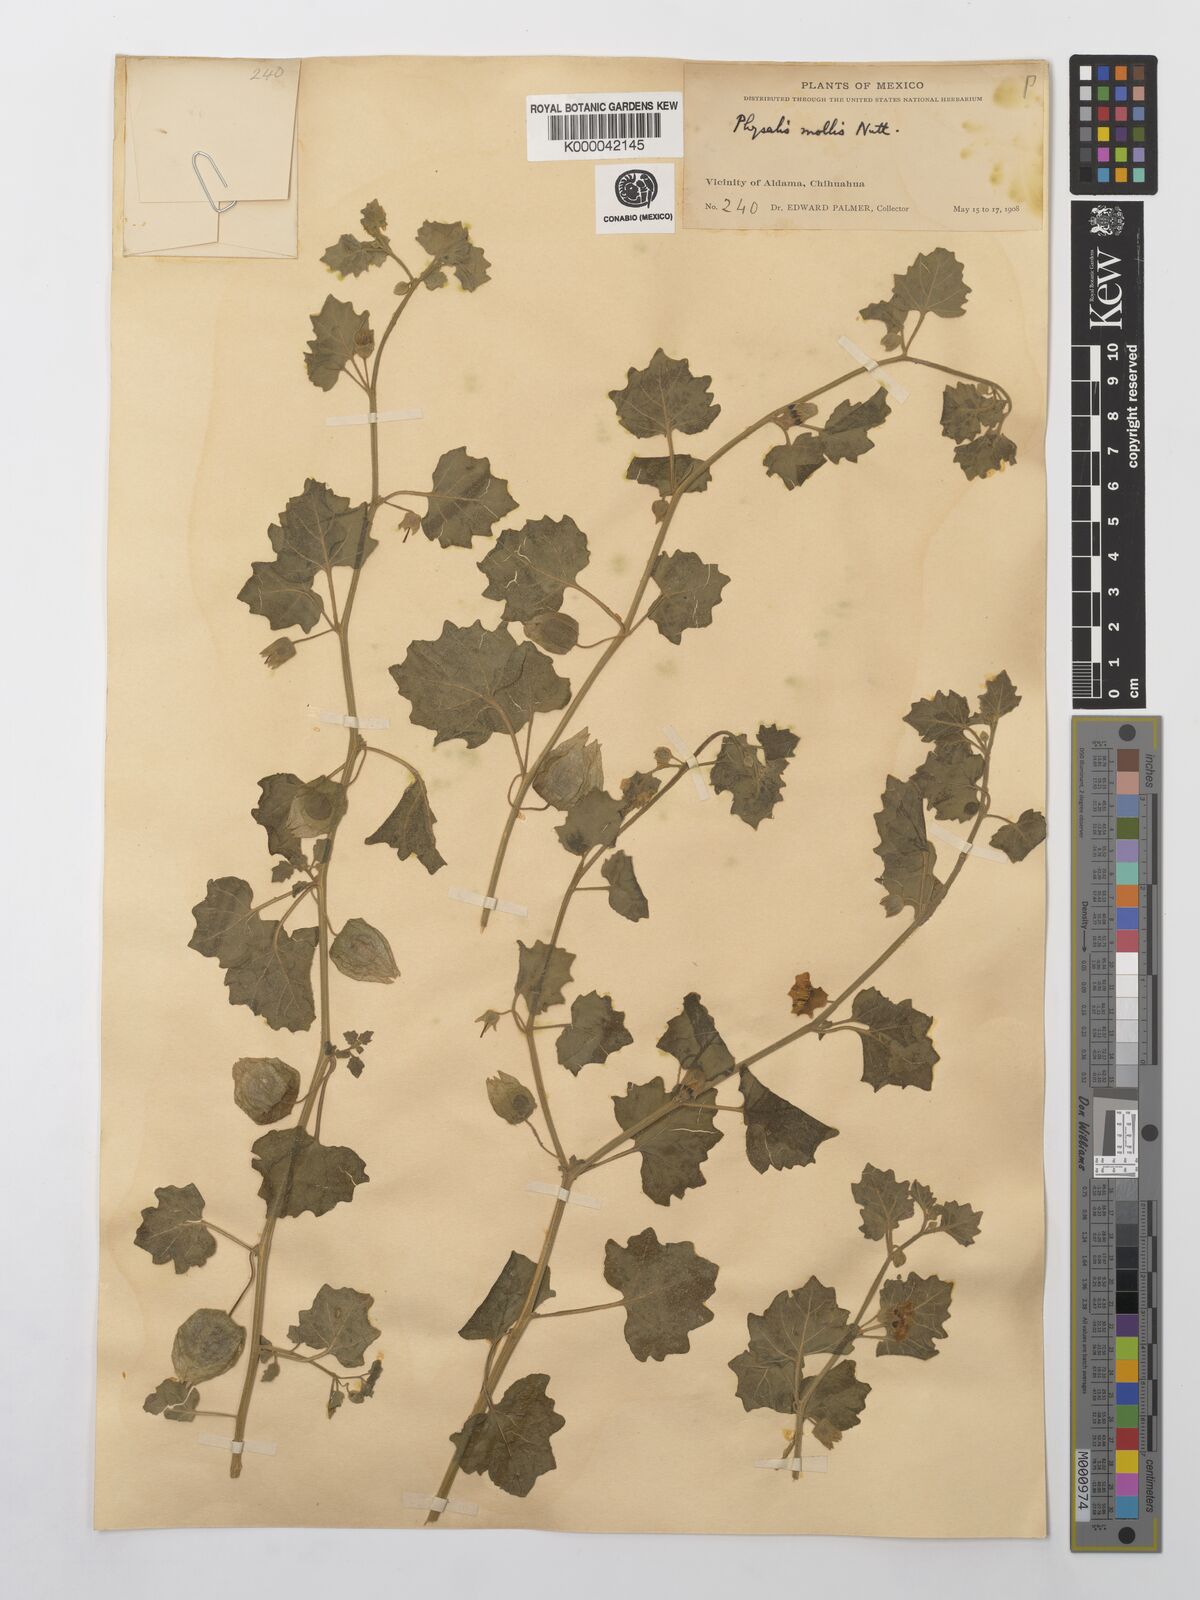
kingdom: Plantae
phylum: Tracheophyta
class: Magnoliopsida
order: Solanales
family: Solanaceae
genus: Physalis
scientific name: Physalis cinerascens
